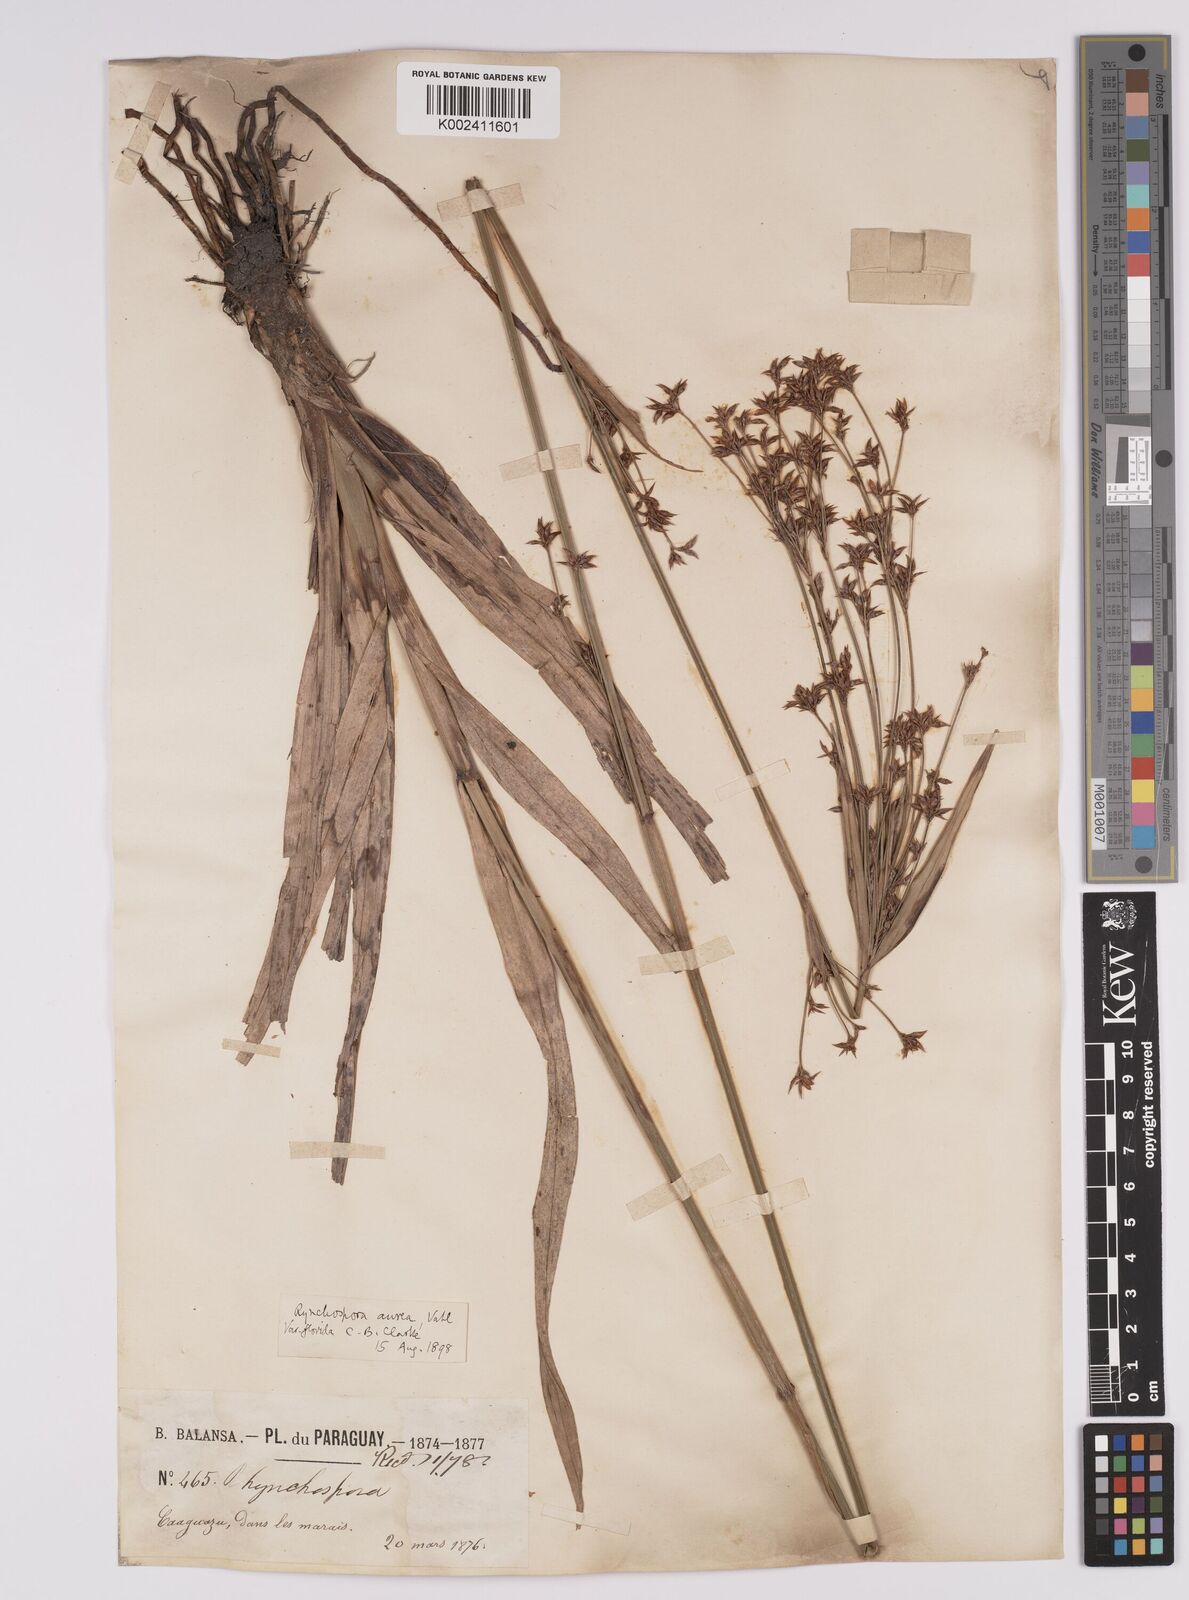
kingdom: Plantae
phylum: Tracheophyta
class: Liliopsida
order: Poales
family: Cyperaceae
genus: Rhynchospora
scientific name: Rhynchospora corymbosa
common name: Golden beak sedge
